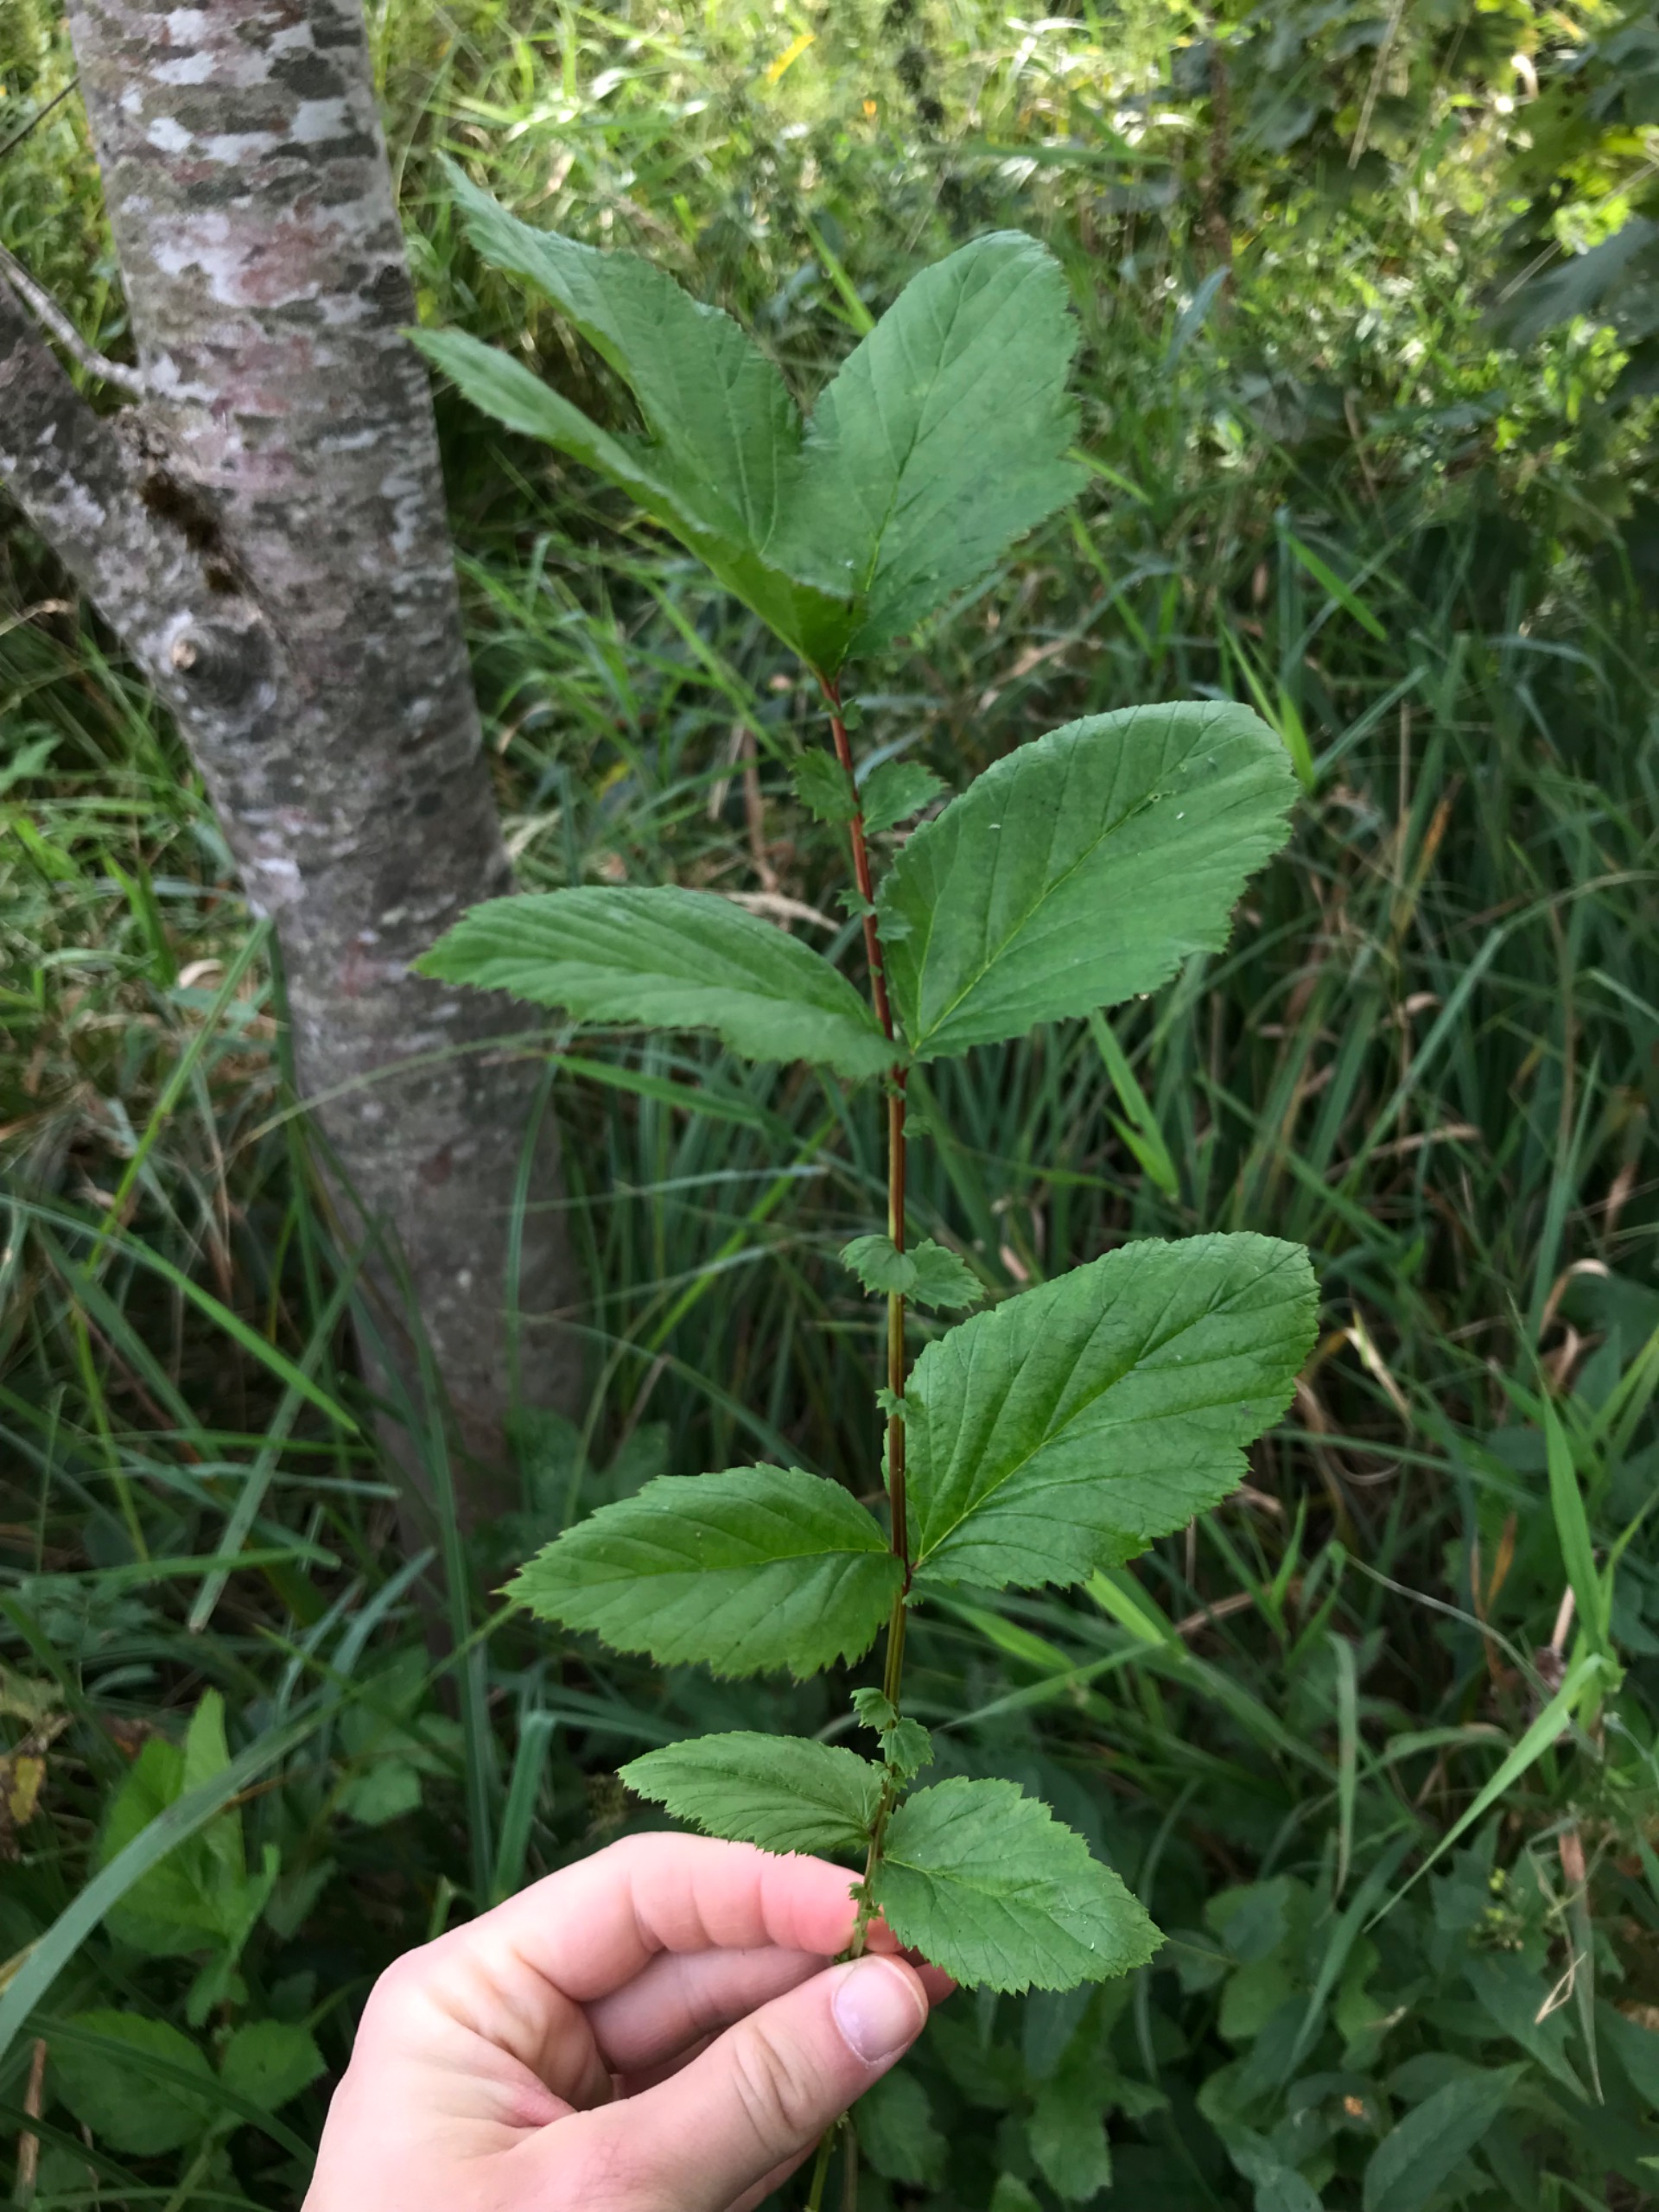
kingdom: Plantae
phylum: Tracheophyta
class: Magnoliopsida
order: Rosales
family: Rosaceae
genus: Filipendula
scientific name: Filipendula ulmaria
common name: Almindelig mjødurt
